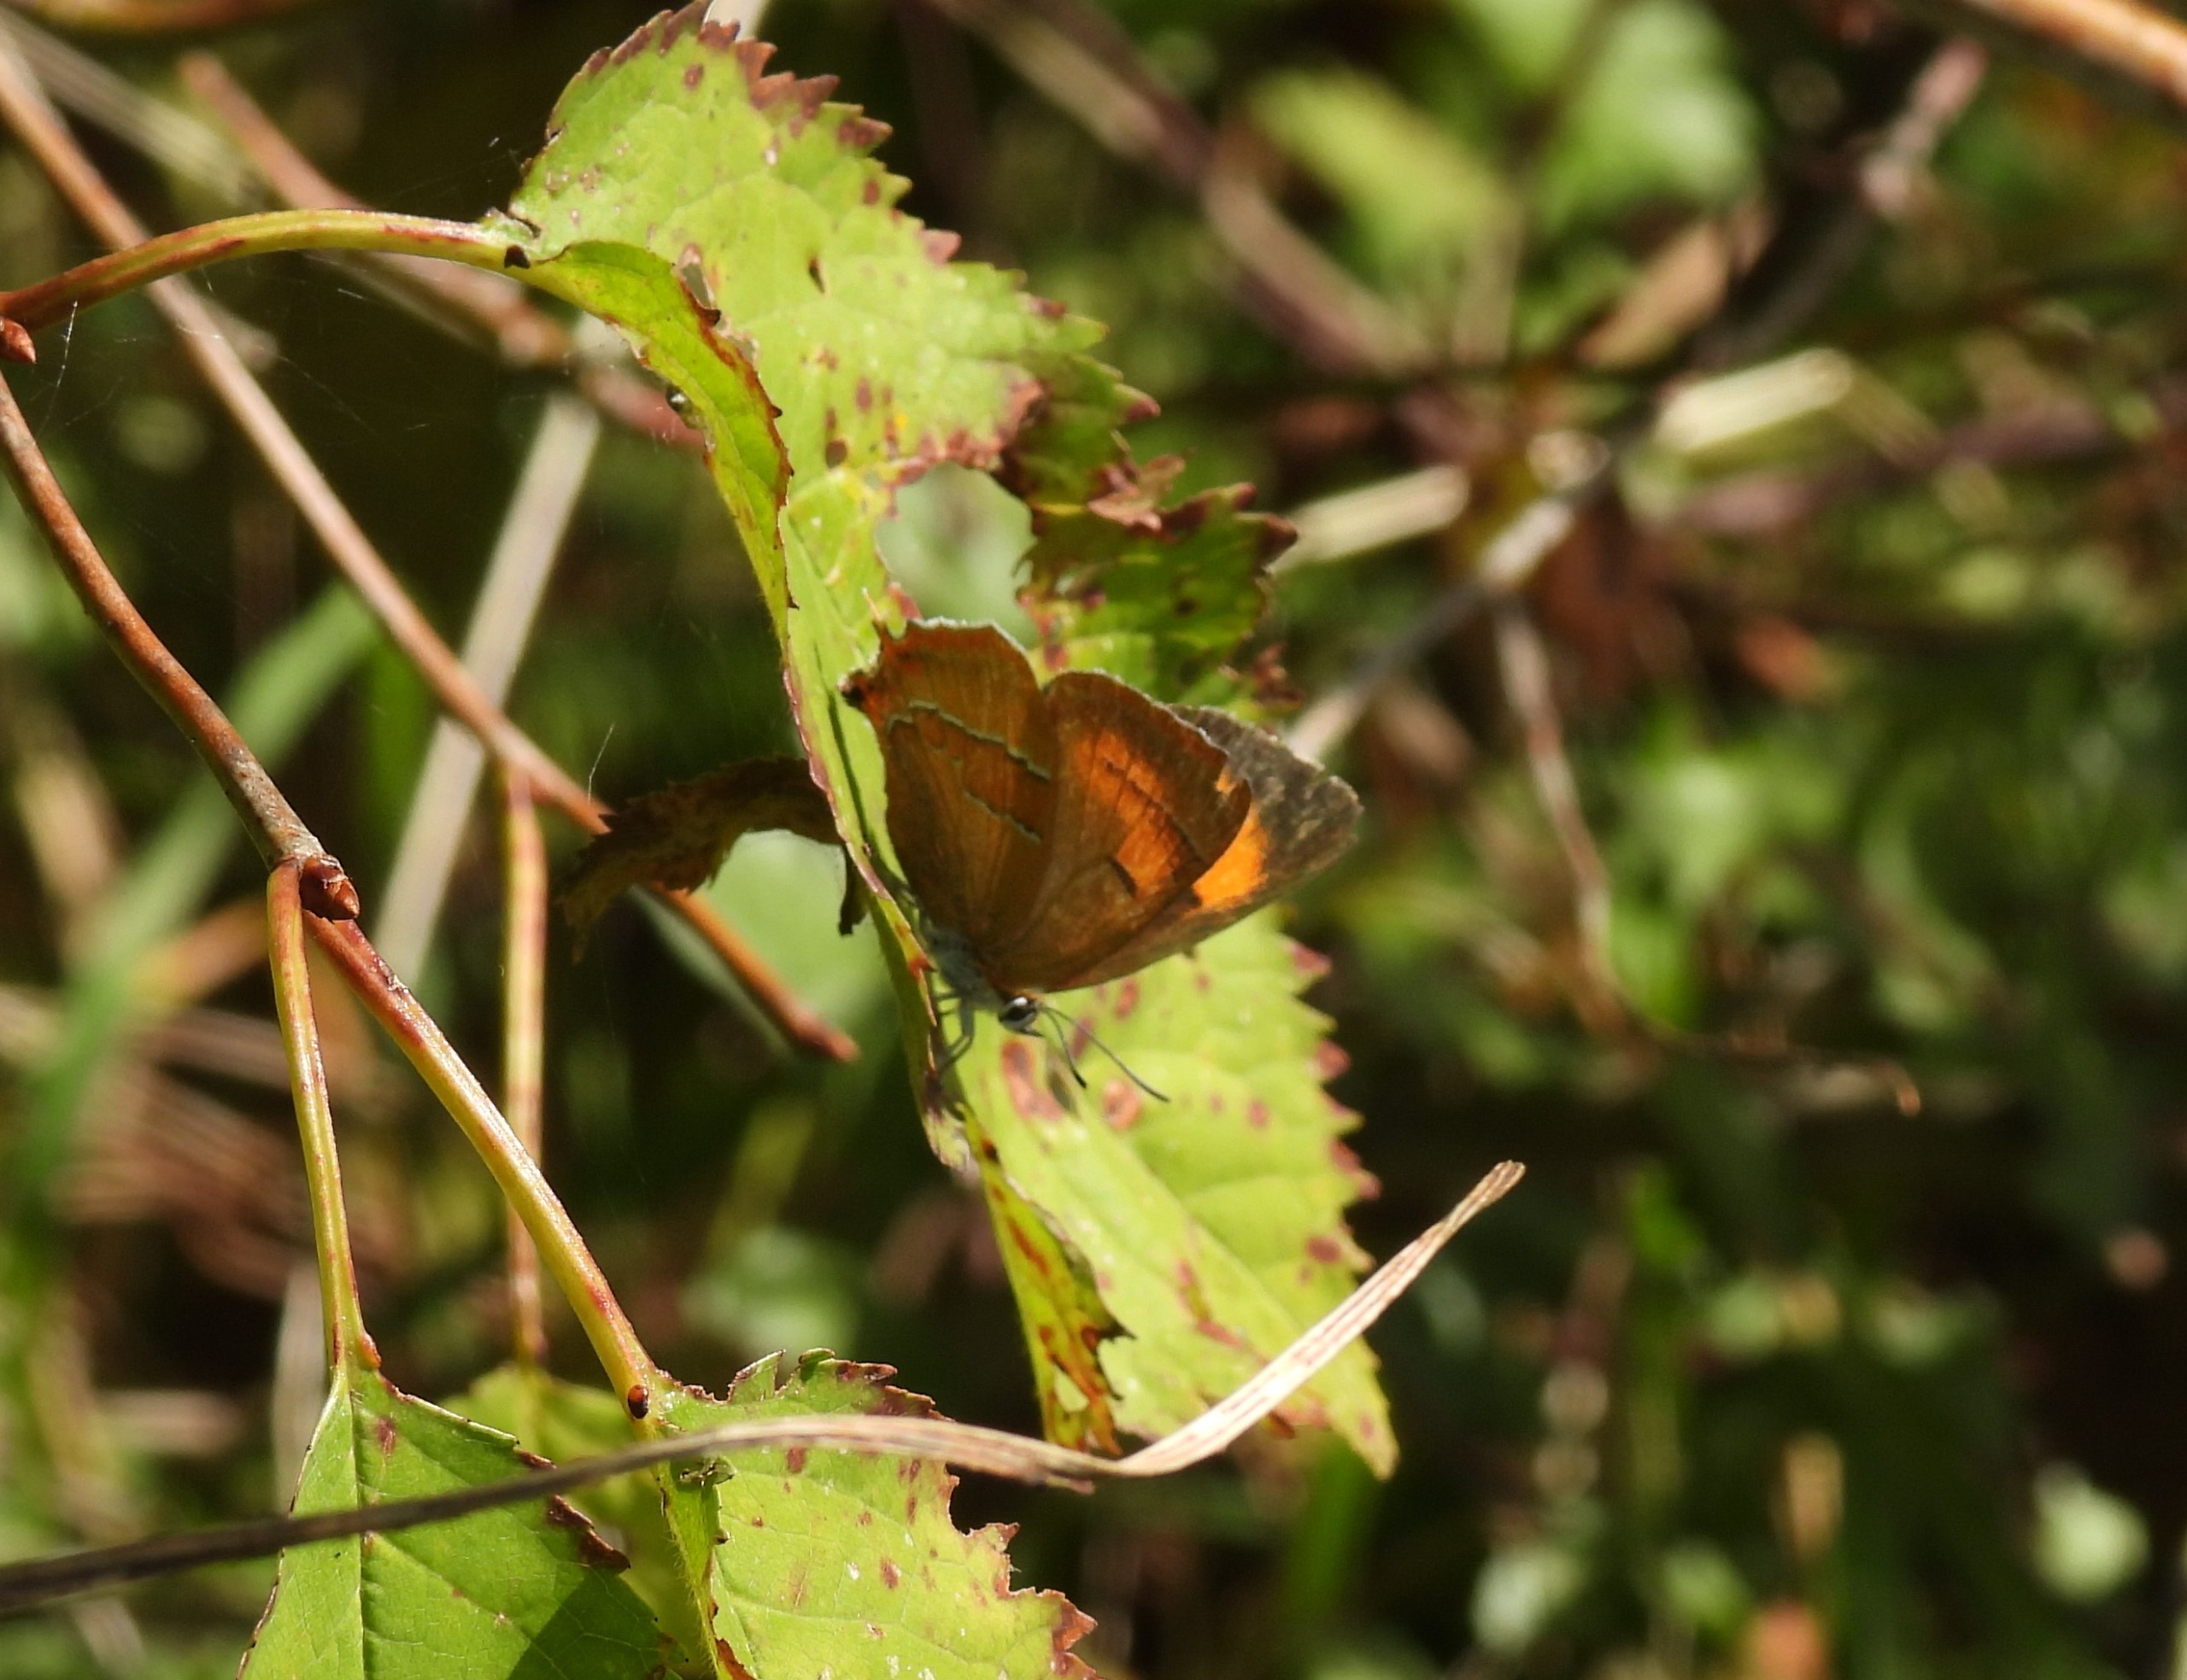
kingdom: Animalia
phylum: Arthropoda
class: Insecta
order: Lepidoptera
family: Lycaenidae
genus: Thecla
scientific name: Thecla betulae
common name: Guldhale
